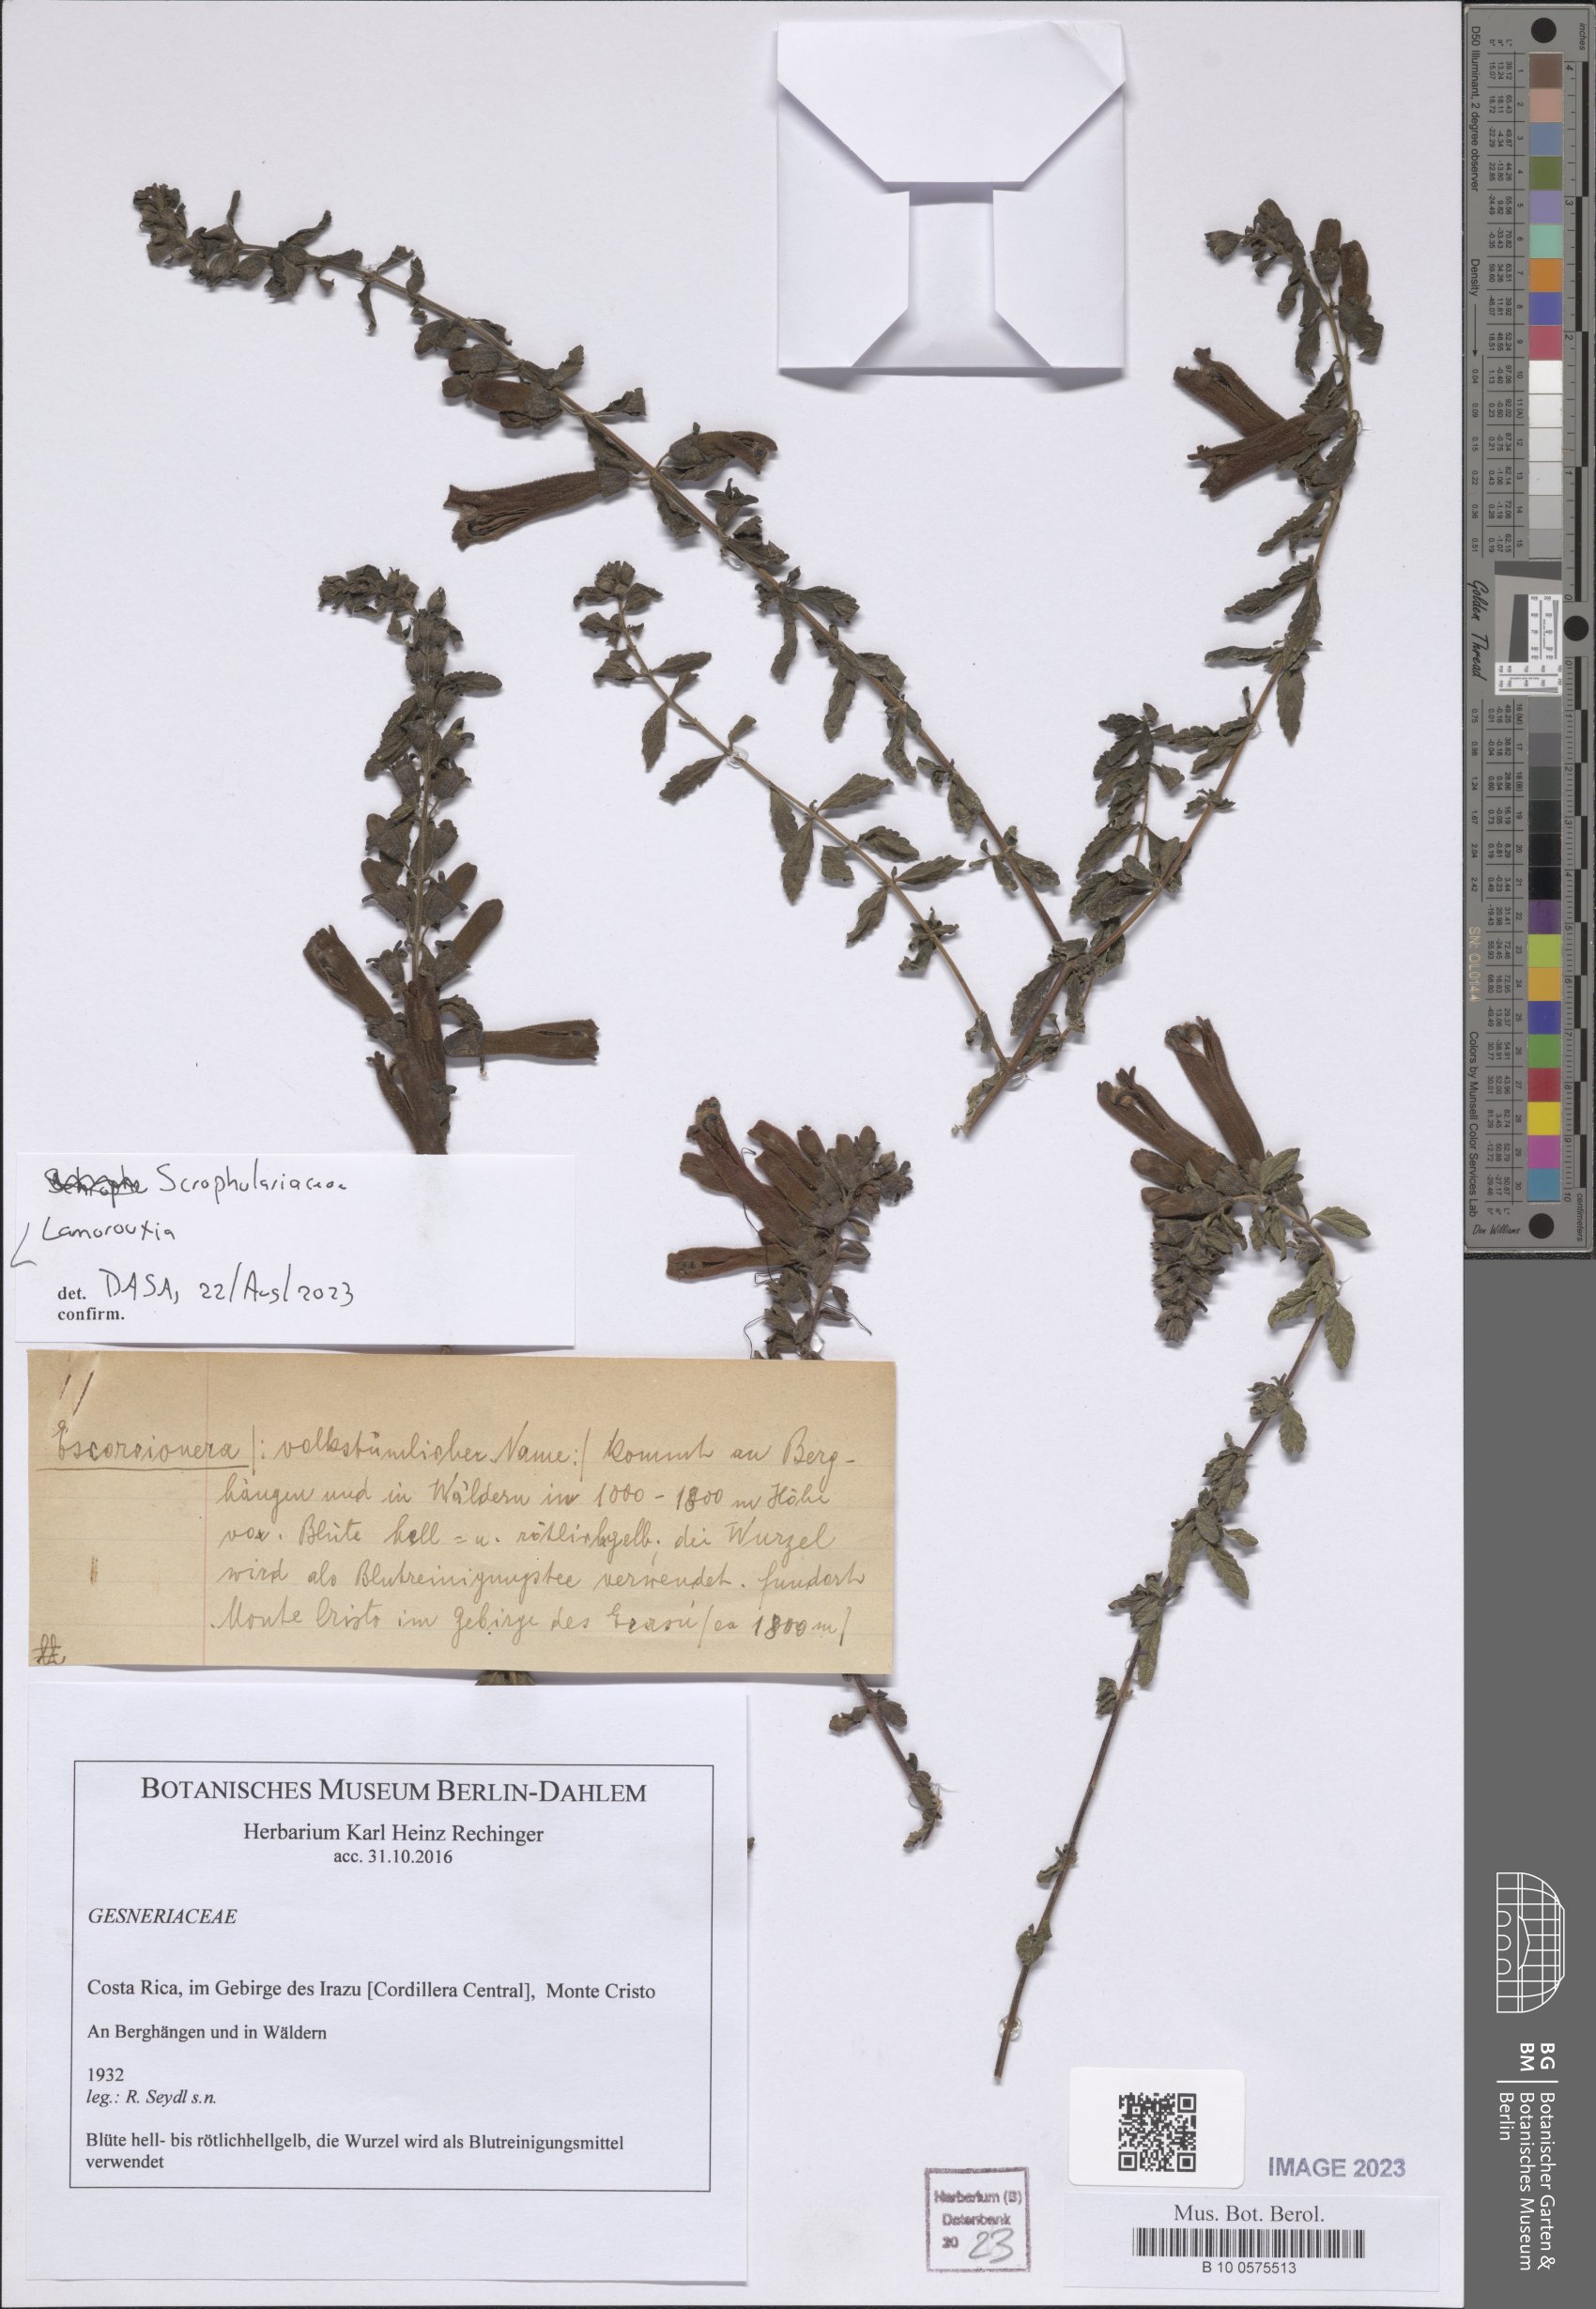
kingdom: Plantae
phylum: Tracheophyta
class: Magnoliopsida
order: Lamiales
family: Orobanchaceae
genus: Lamourouxia
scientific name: Lamourouxia
